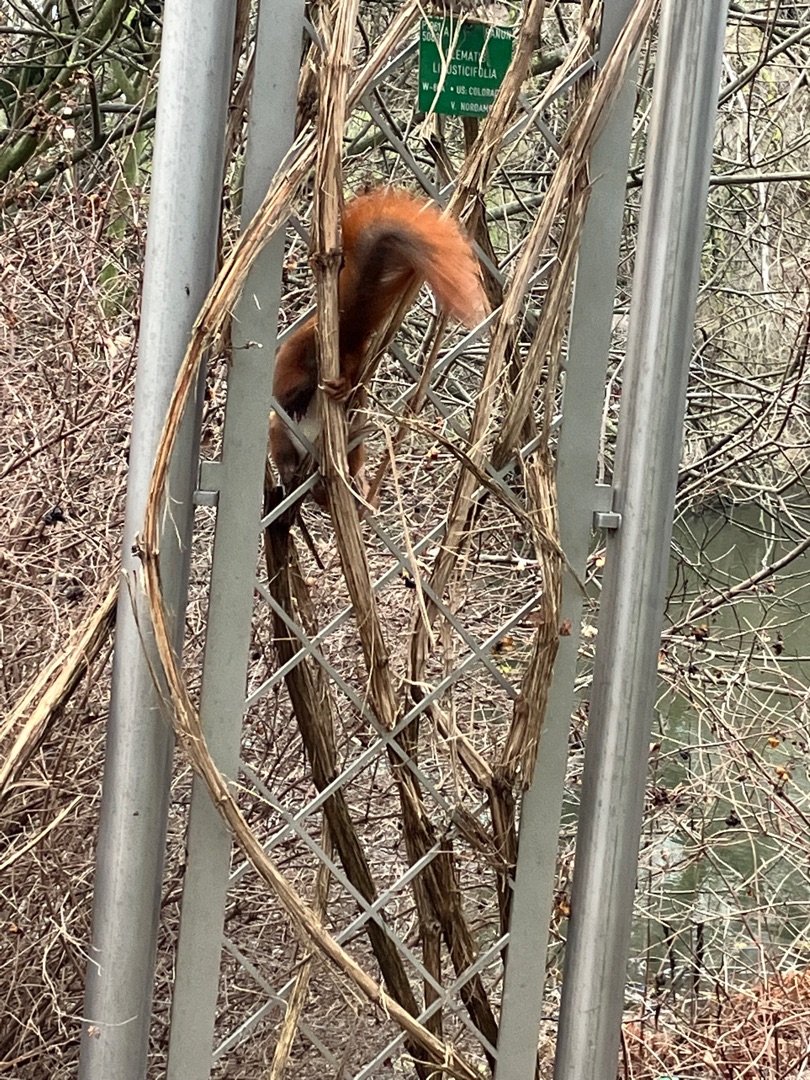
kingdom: Animalia
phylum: Chordata
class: Mammalia
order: Rodentia
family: Sciuridae
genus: Sciurus
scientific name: Sciurus vulgaris
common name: Egern
